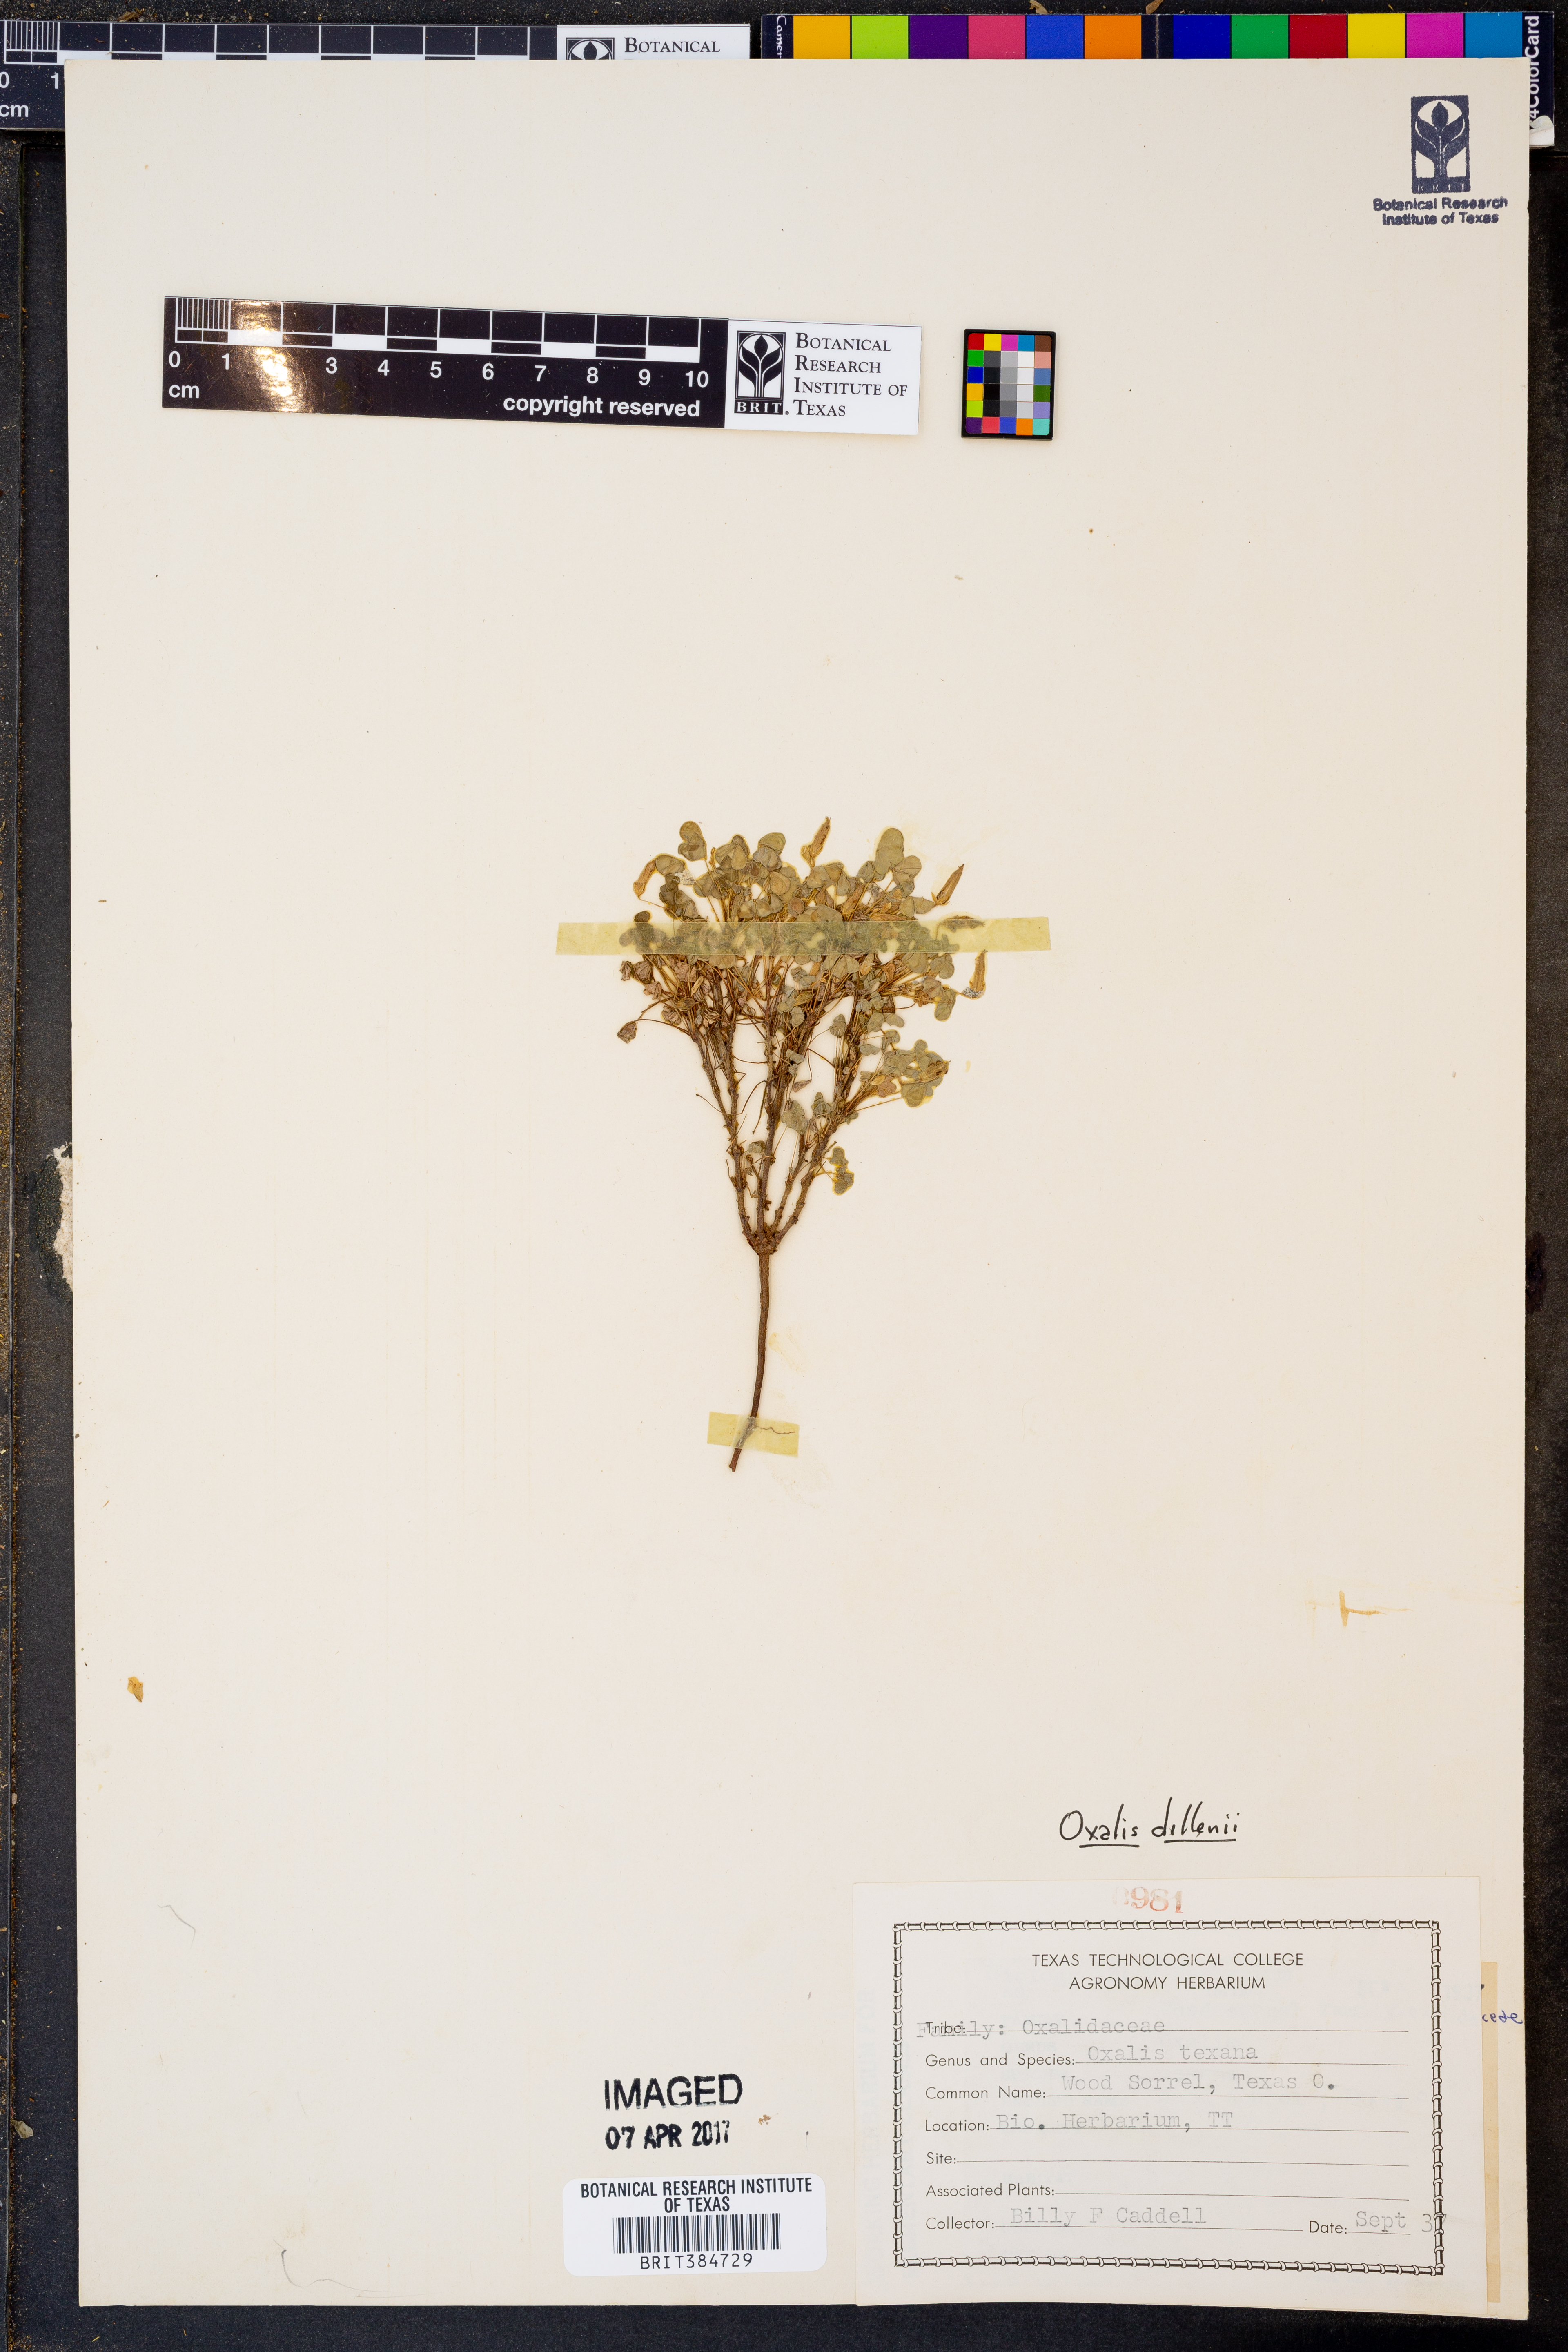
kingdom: Plantae
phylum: Tracheophyta
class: Magnoliopsida
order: Oxalidales
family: Oxalidaceae
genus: Oxalis
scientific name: Oxalis texana
